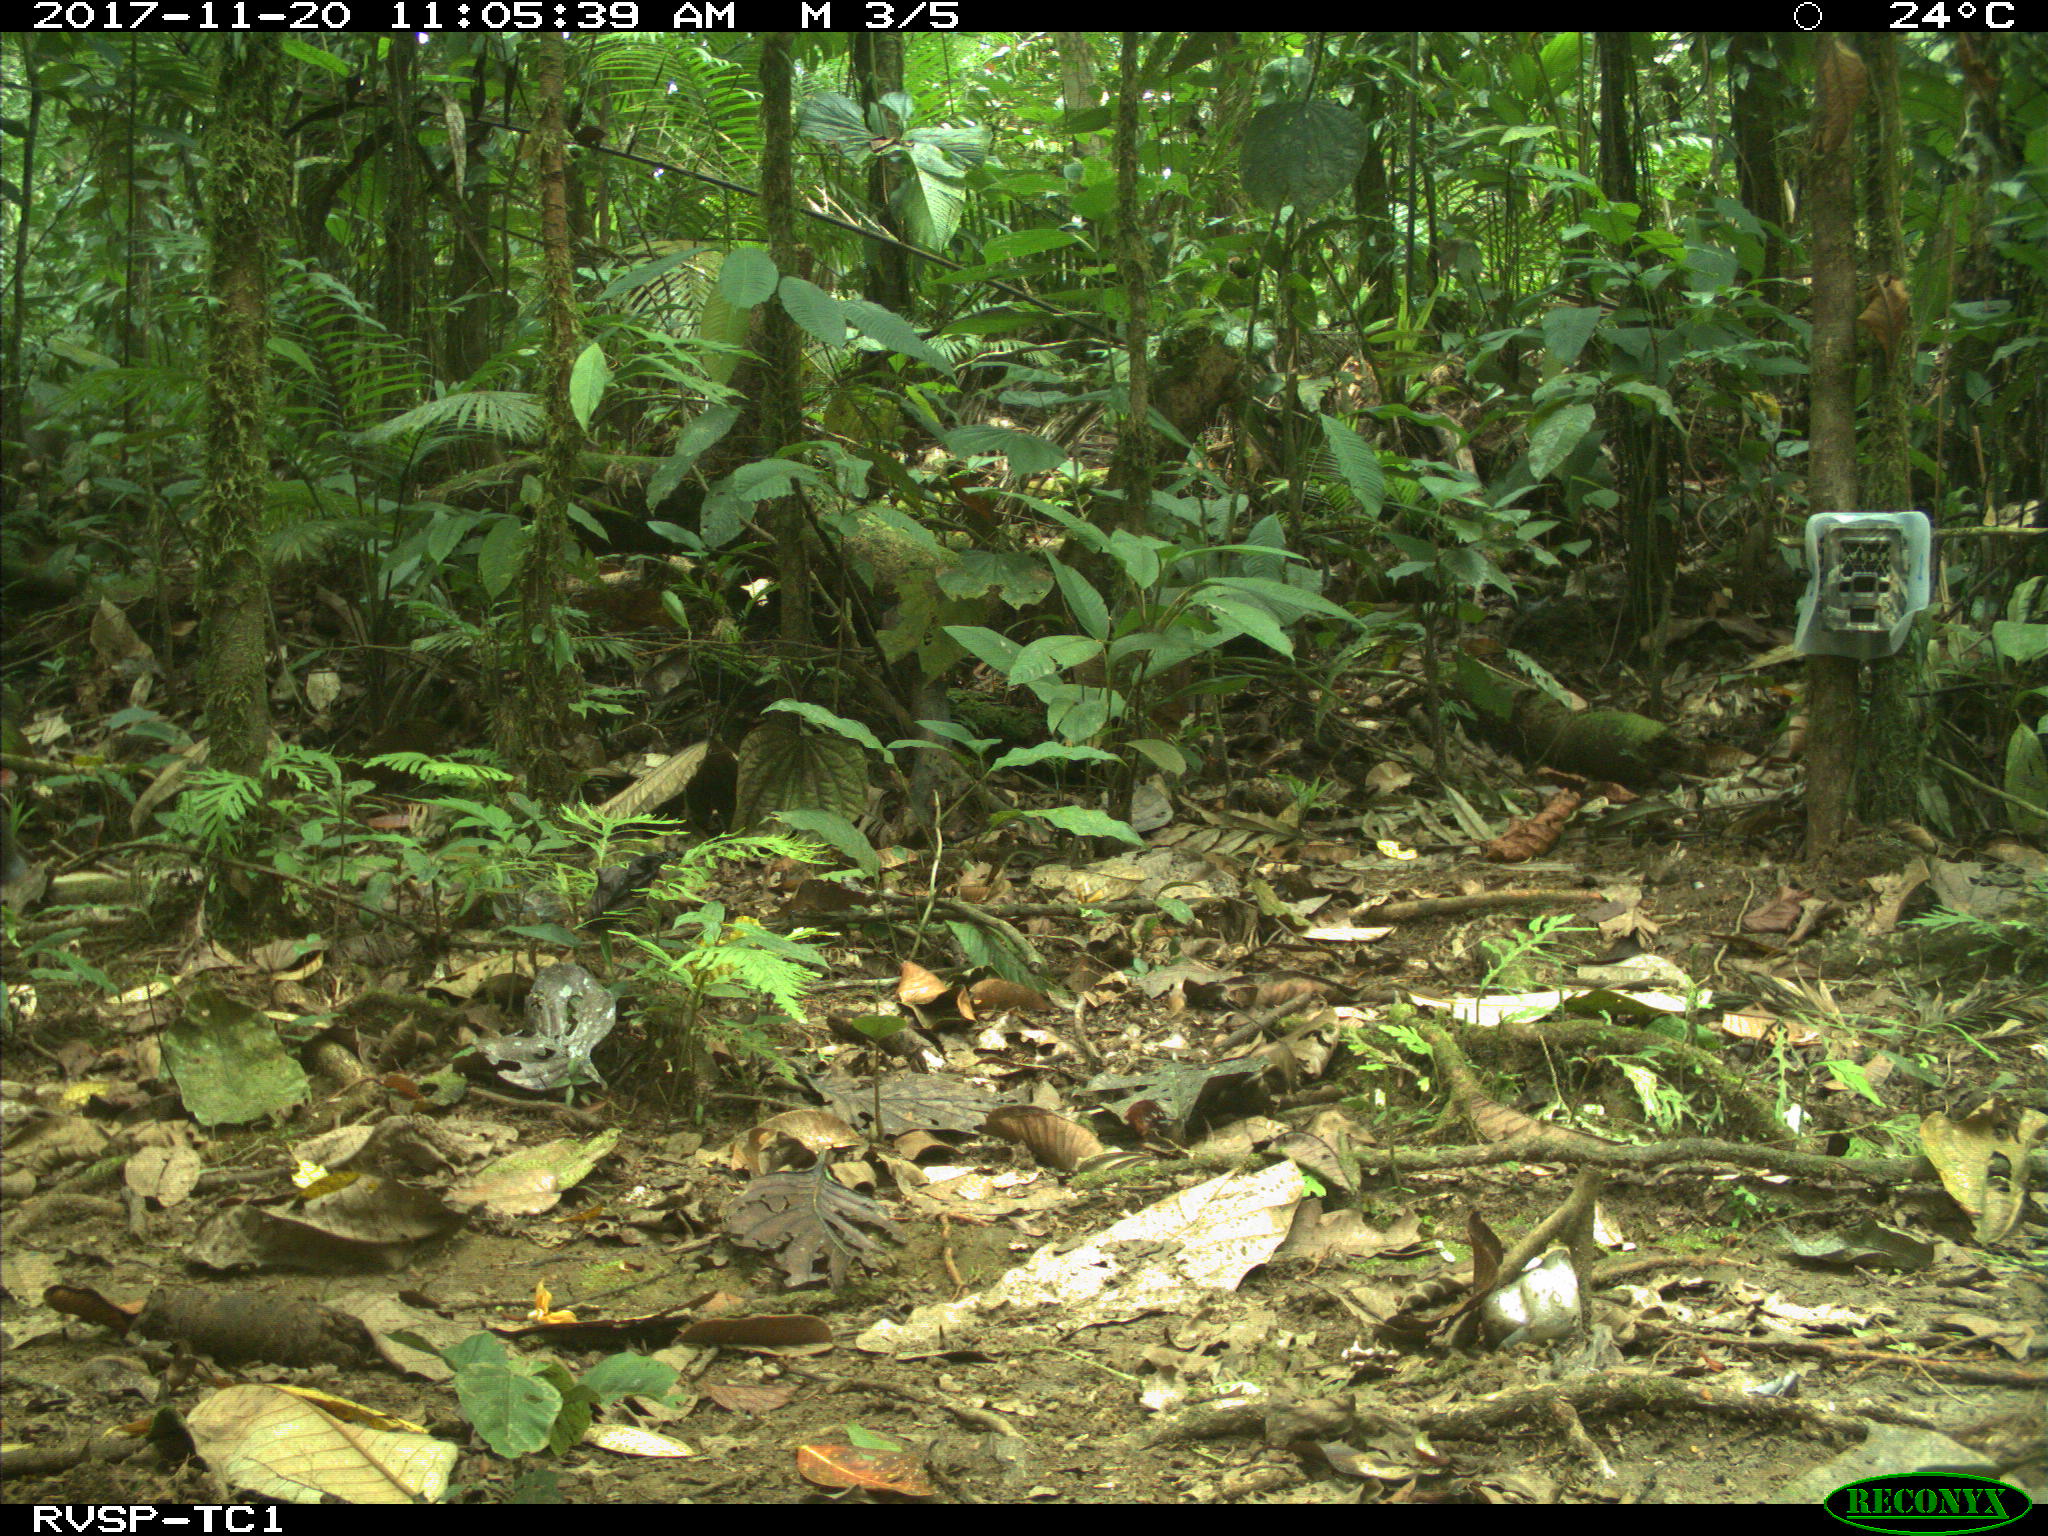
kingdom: Animalia
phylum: Chordata
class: Mammalia
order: Artiodactyla
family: Tayassuidae
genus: Tayassu
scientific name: Tayassu pecari
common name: White-lipped peccary
